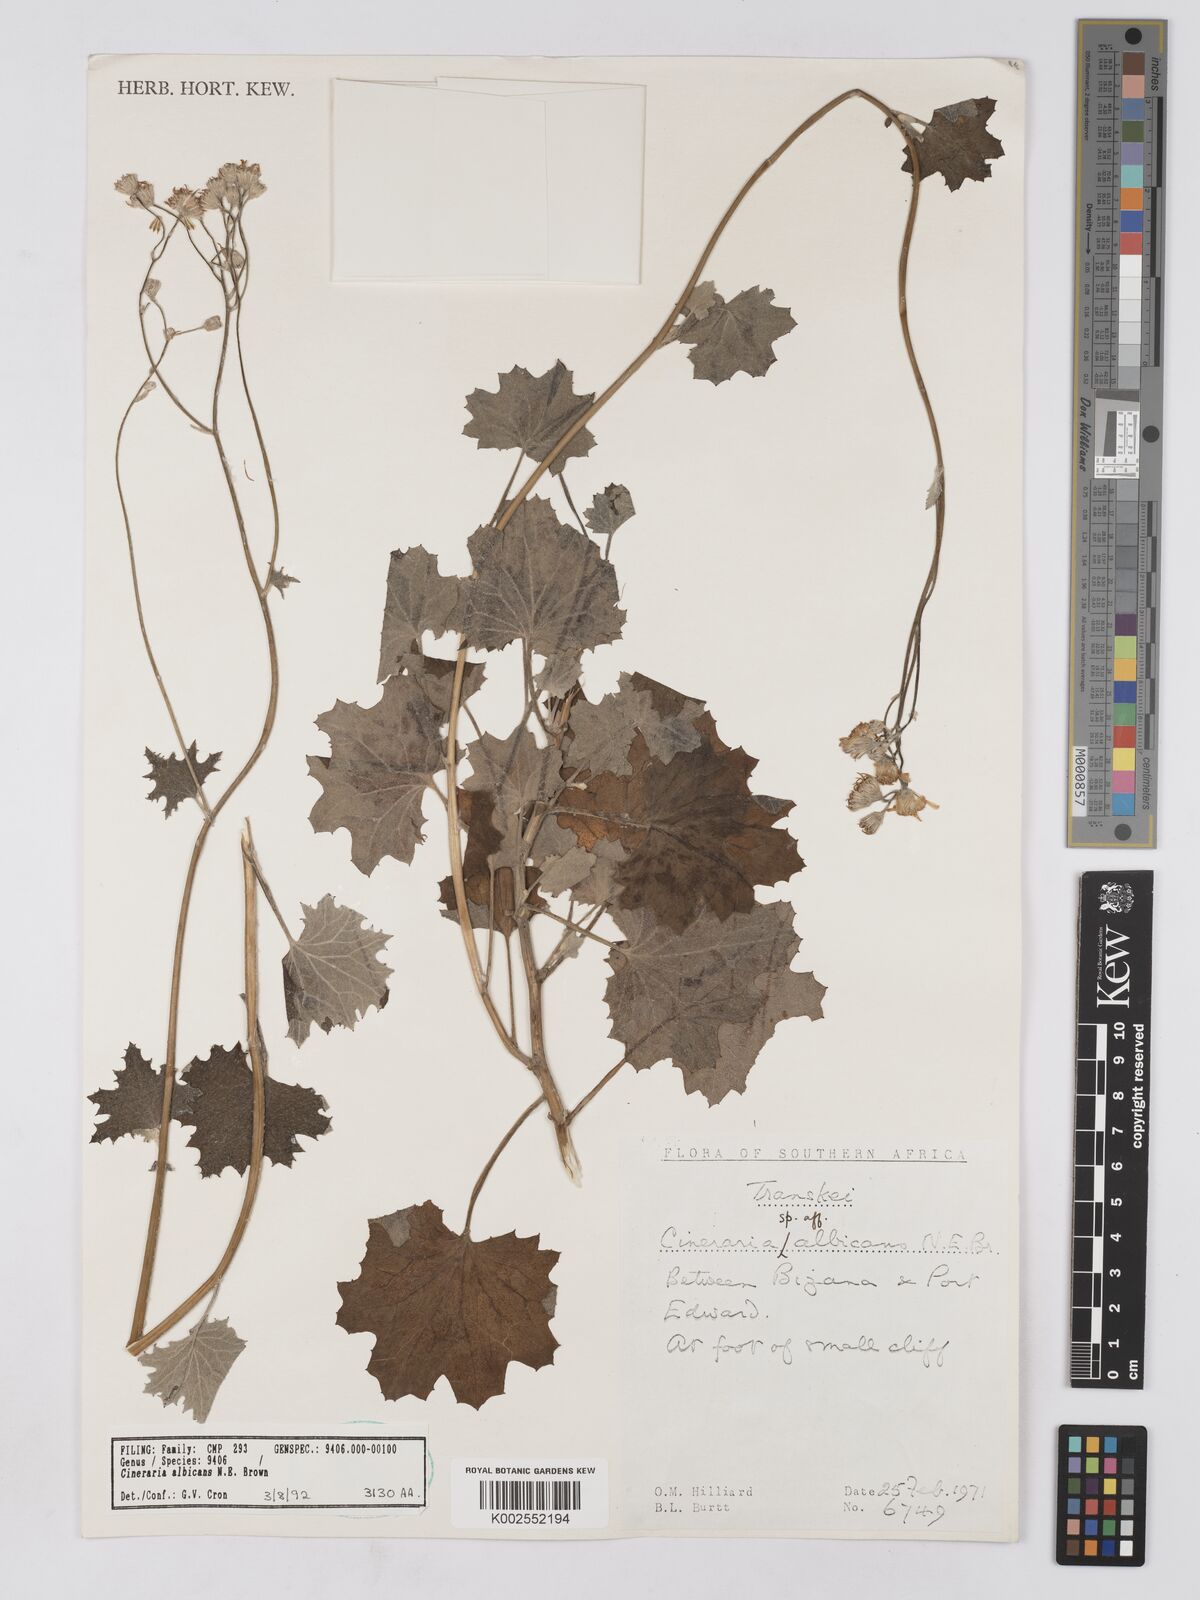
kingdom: Plantae
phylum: Tracheophyta
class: Magnoliopsida
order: Asterales
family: Asteraceae
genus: Cineraria
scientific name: Cineraria albicans
